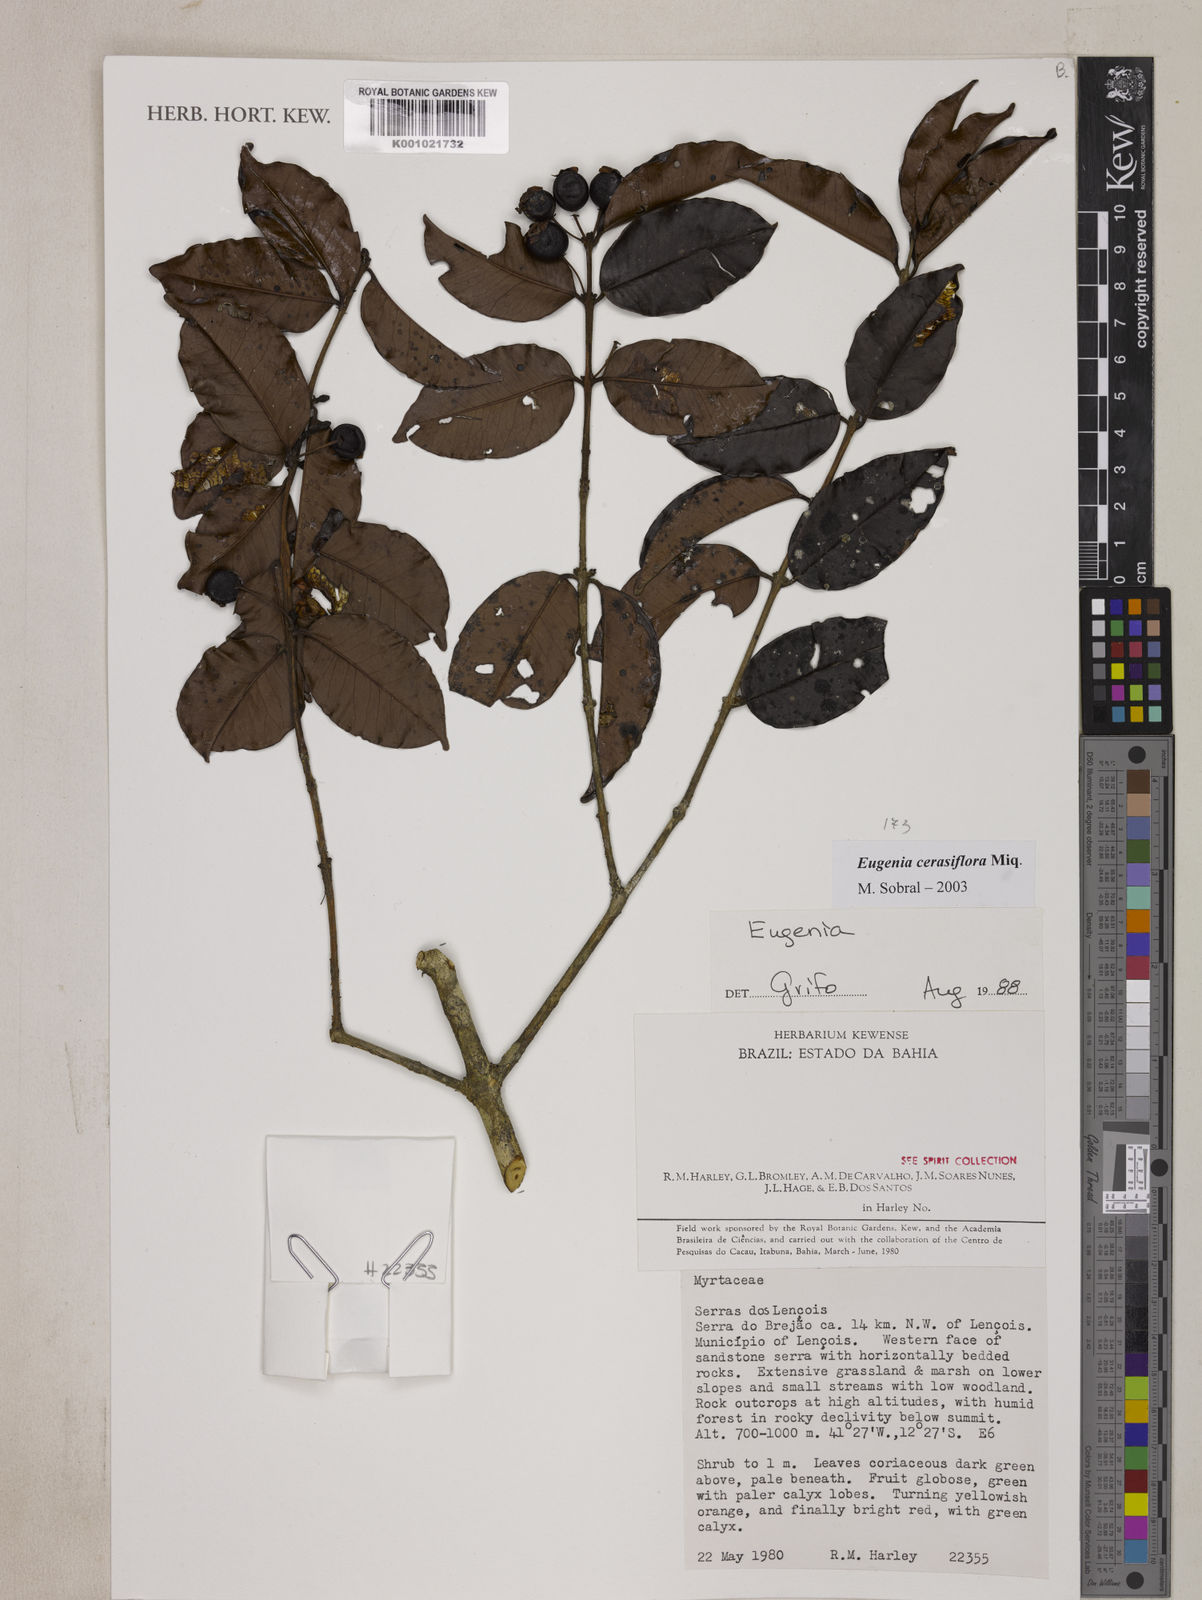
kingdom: Plantae
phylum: Tracheophyta
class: Magnoliopsida
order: Myrtales
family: Myrtaceae
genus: Eugenia
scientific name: Eugenia cerasiflora
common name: Cherry-of-the-rio-grande
